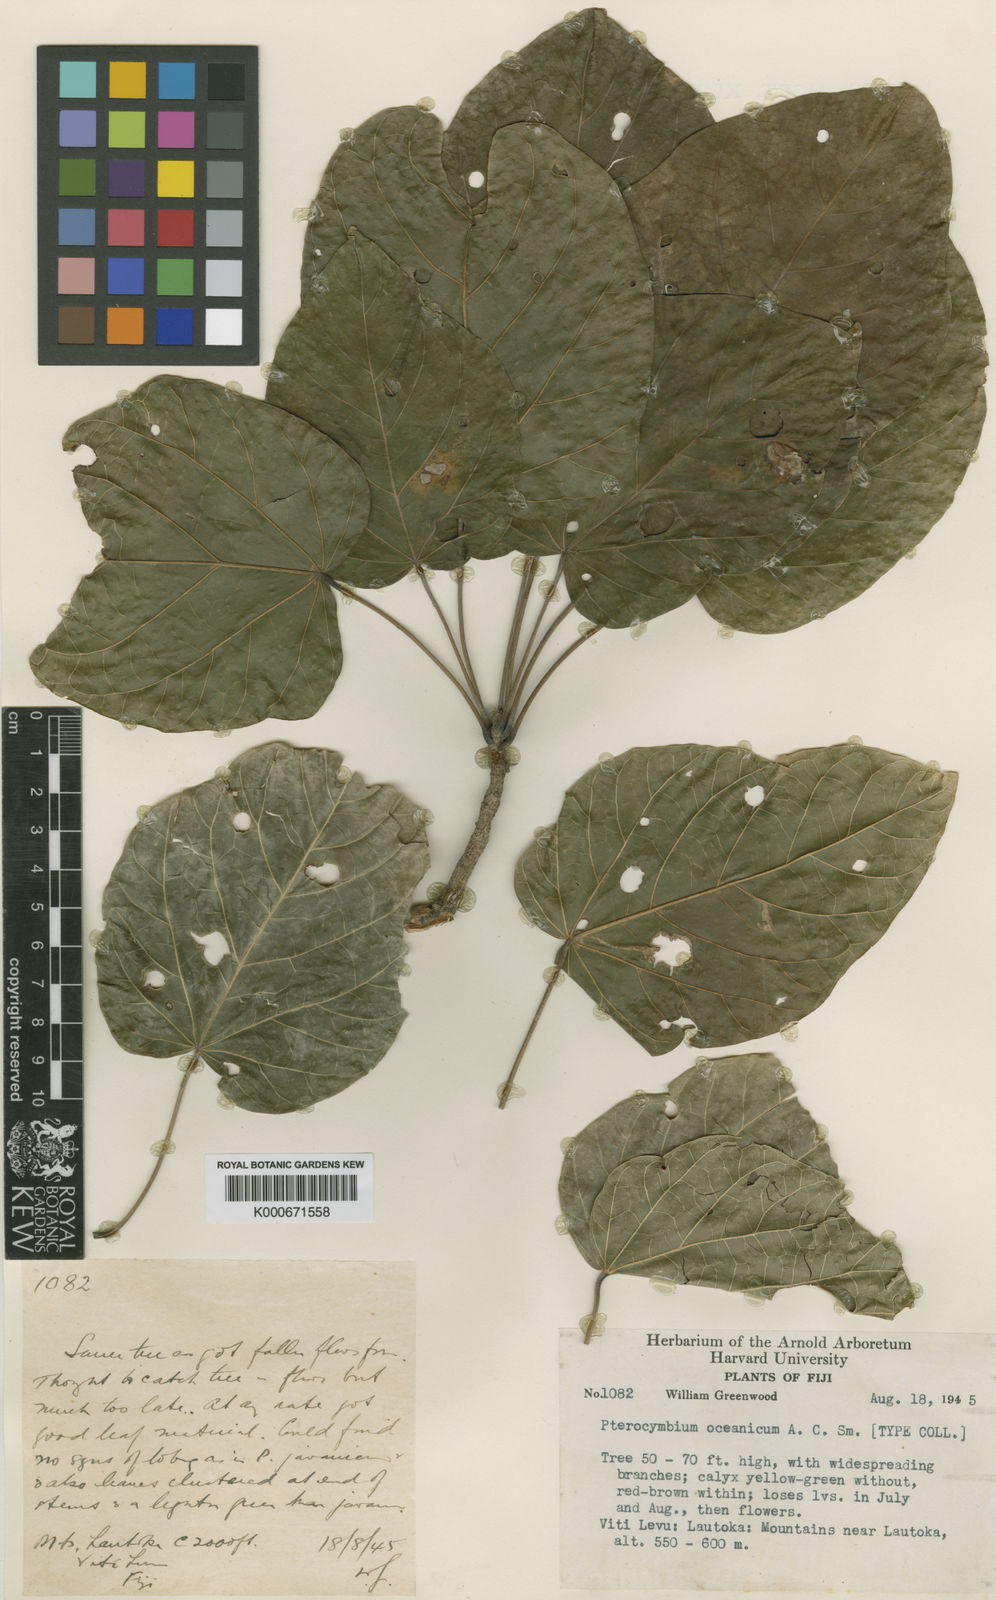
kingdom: Plantae
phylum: Tracheophyta
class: Magnoliopsida
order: Malvales
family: Malvaceae
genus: Pterocymbium
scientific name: Pterocymbium oceanicum
